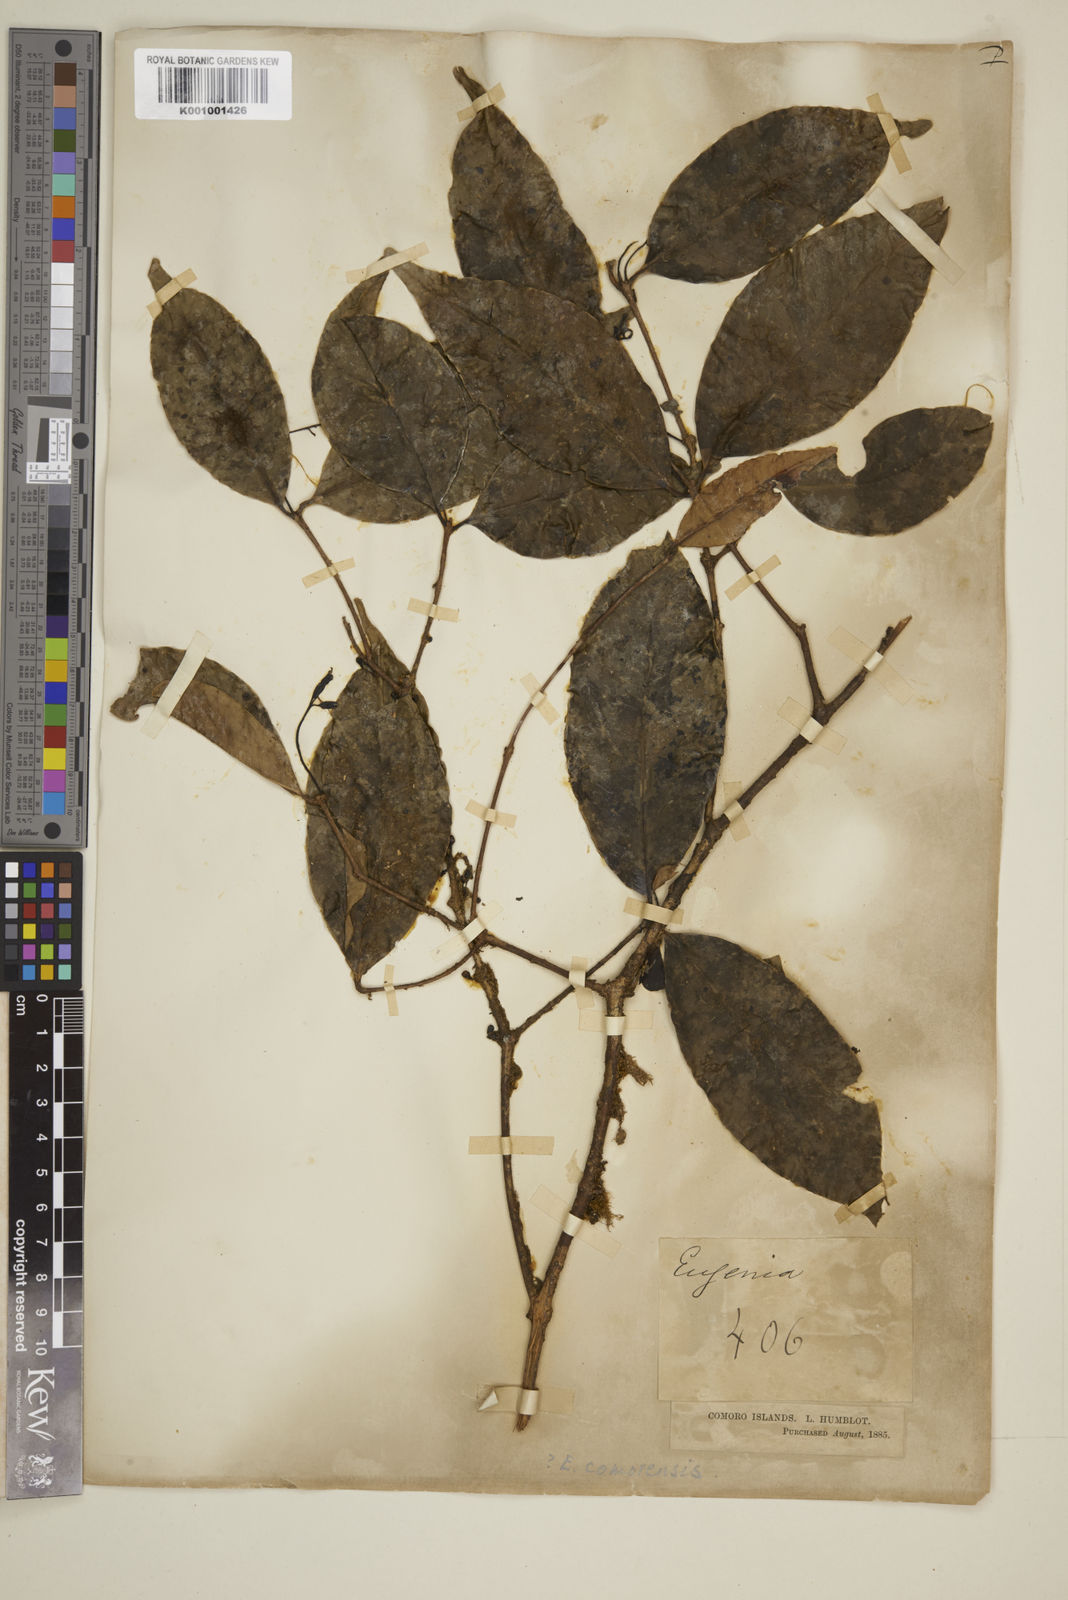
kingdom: Plantae
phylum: Tracheophyta
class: Magnoliopsida
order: Myrtales
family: Myrtaceae
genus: Eugenia
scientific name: Eugenia comorensis
